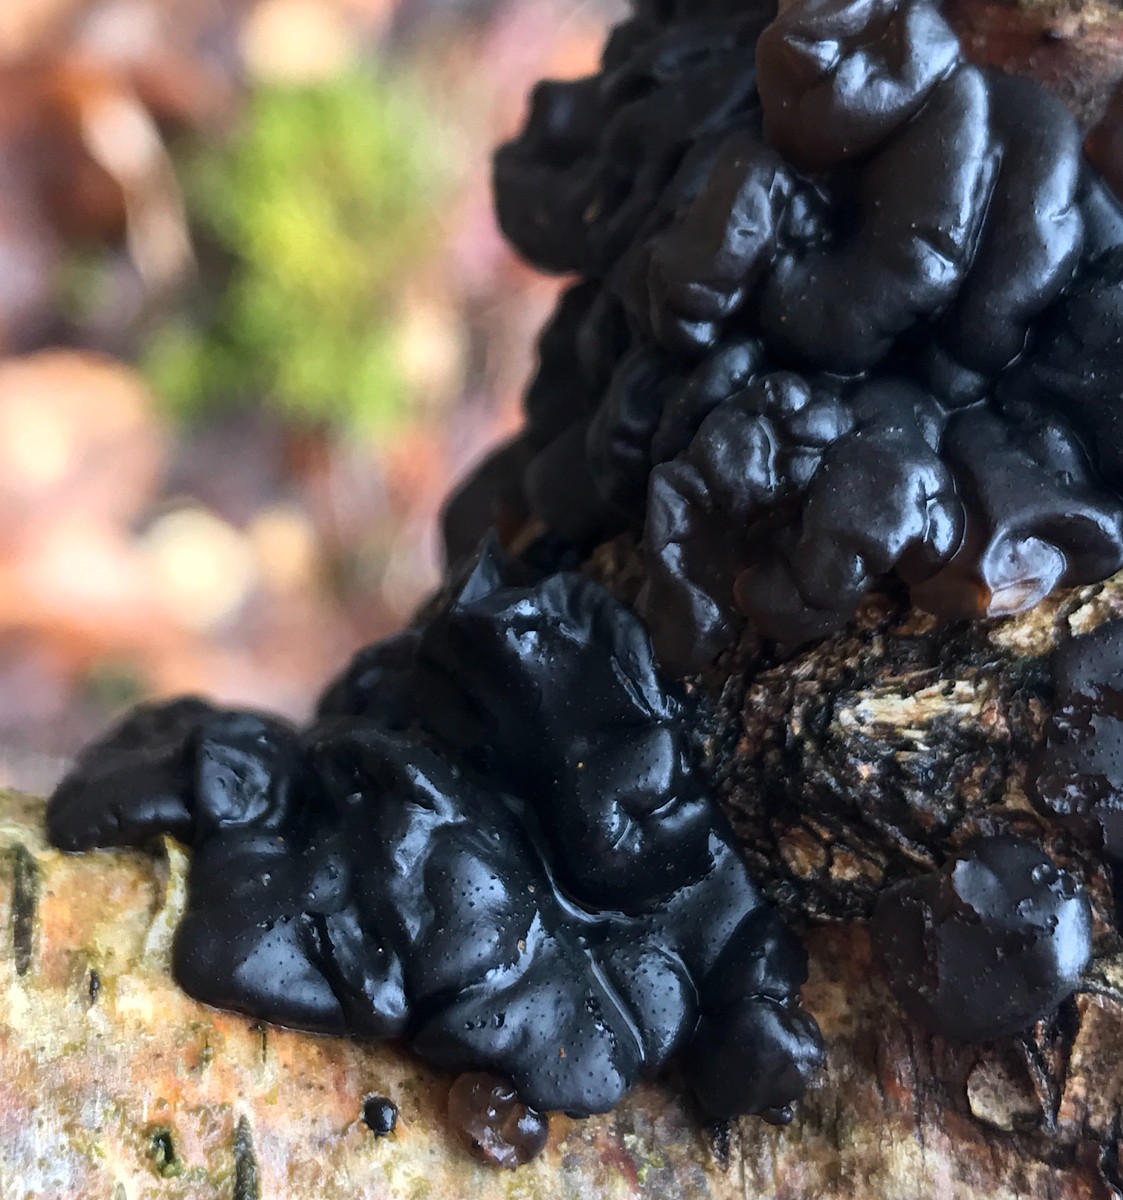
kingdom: Fungi
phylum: Basidiomycota
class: Agaricomycetes
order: Auriculariales
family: Auriculariaceae
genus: Exidia
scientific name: Exidia nigricans
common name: almindelig bævretop
